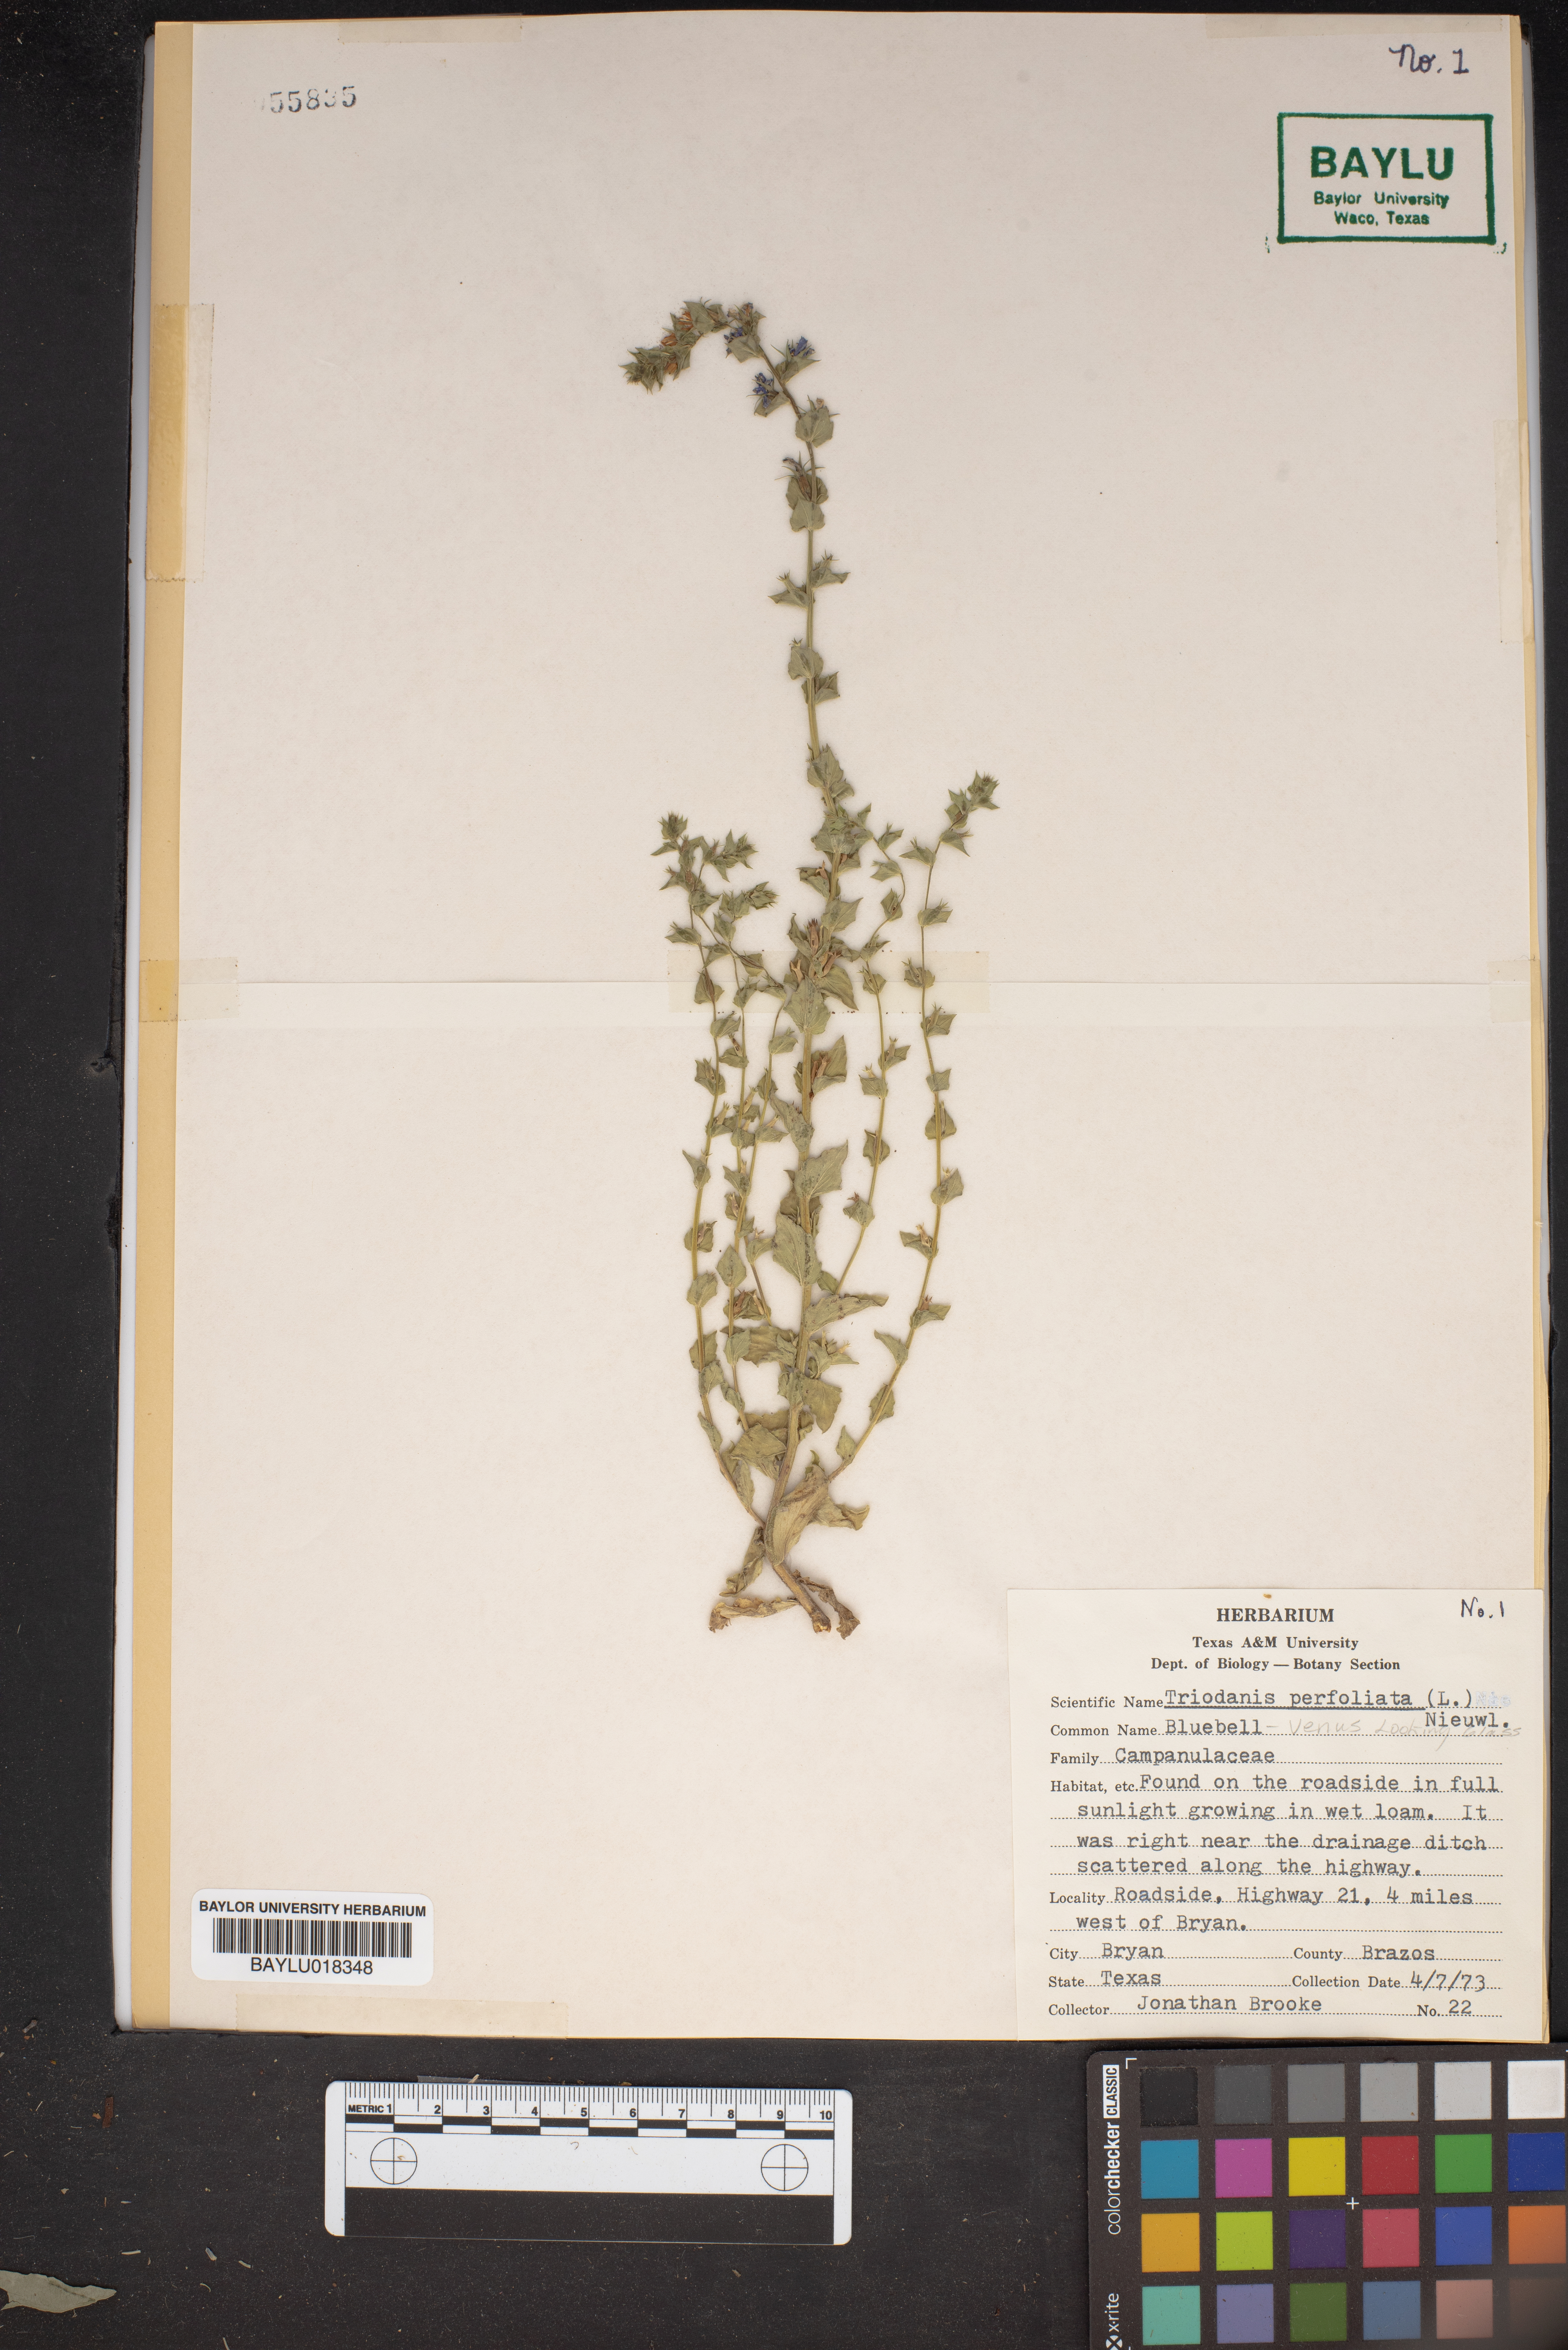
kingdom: Plantae
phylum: Tracheophyta
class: Magnoliopsida
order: Asterales
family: Campanulaceae
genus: Triodanis
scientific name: Triodanis perfoliata
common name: Clasping venus' looking-glass
